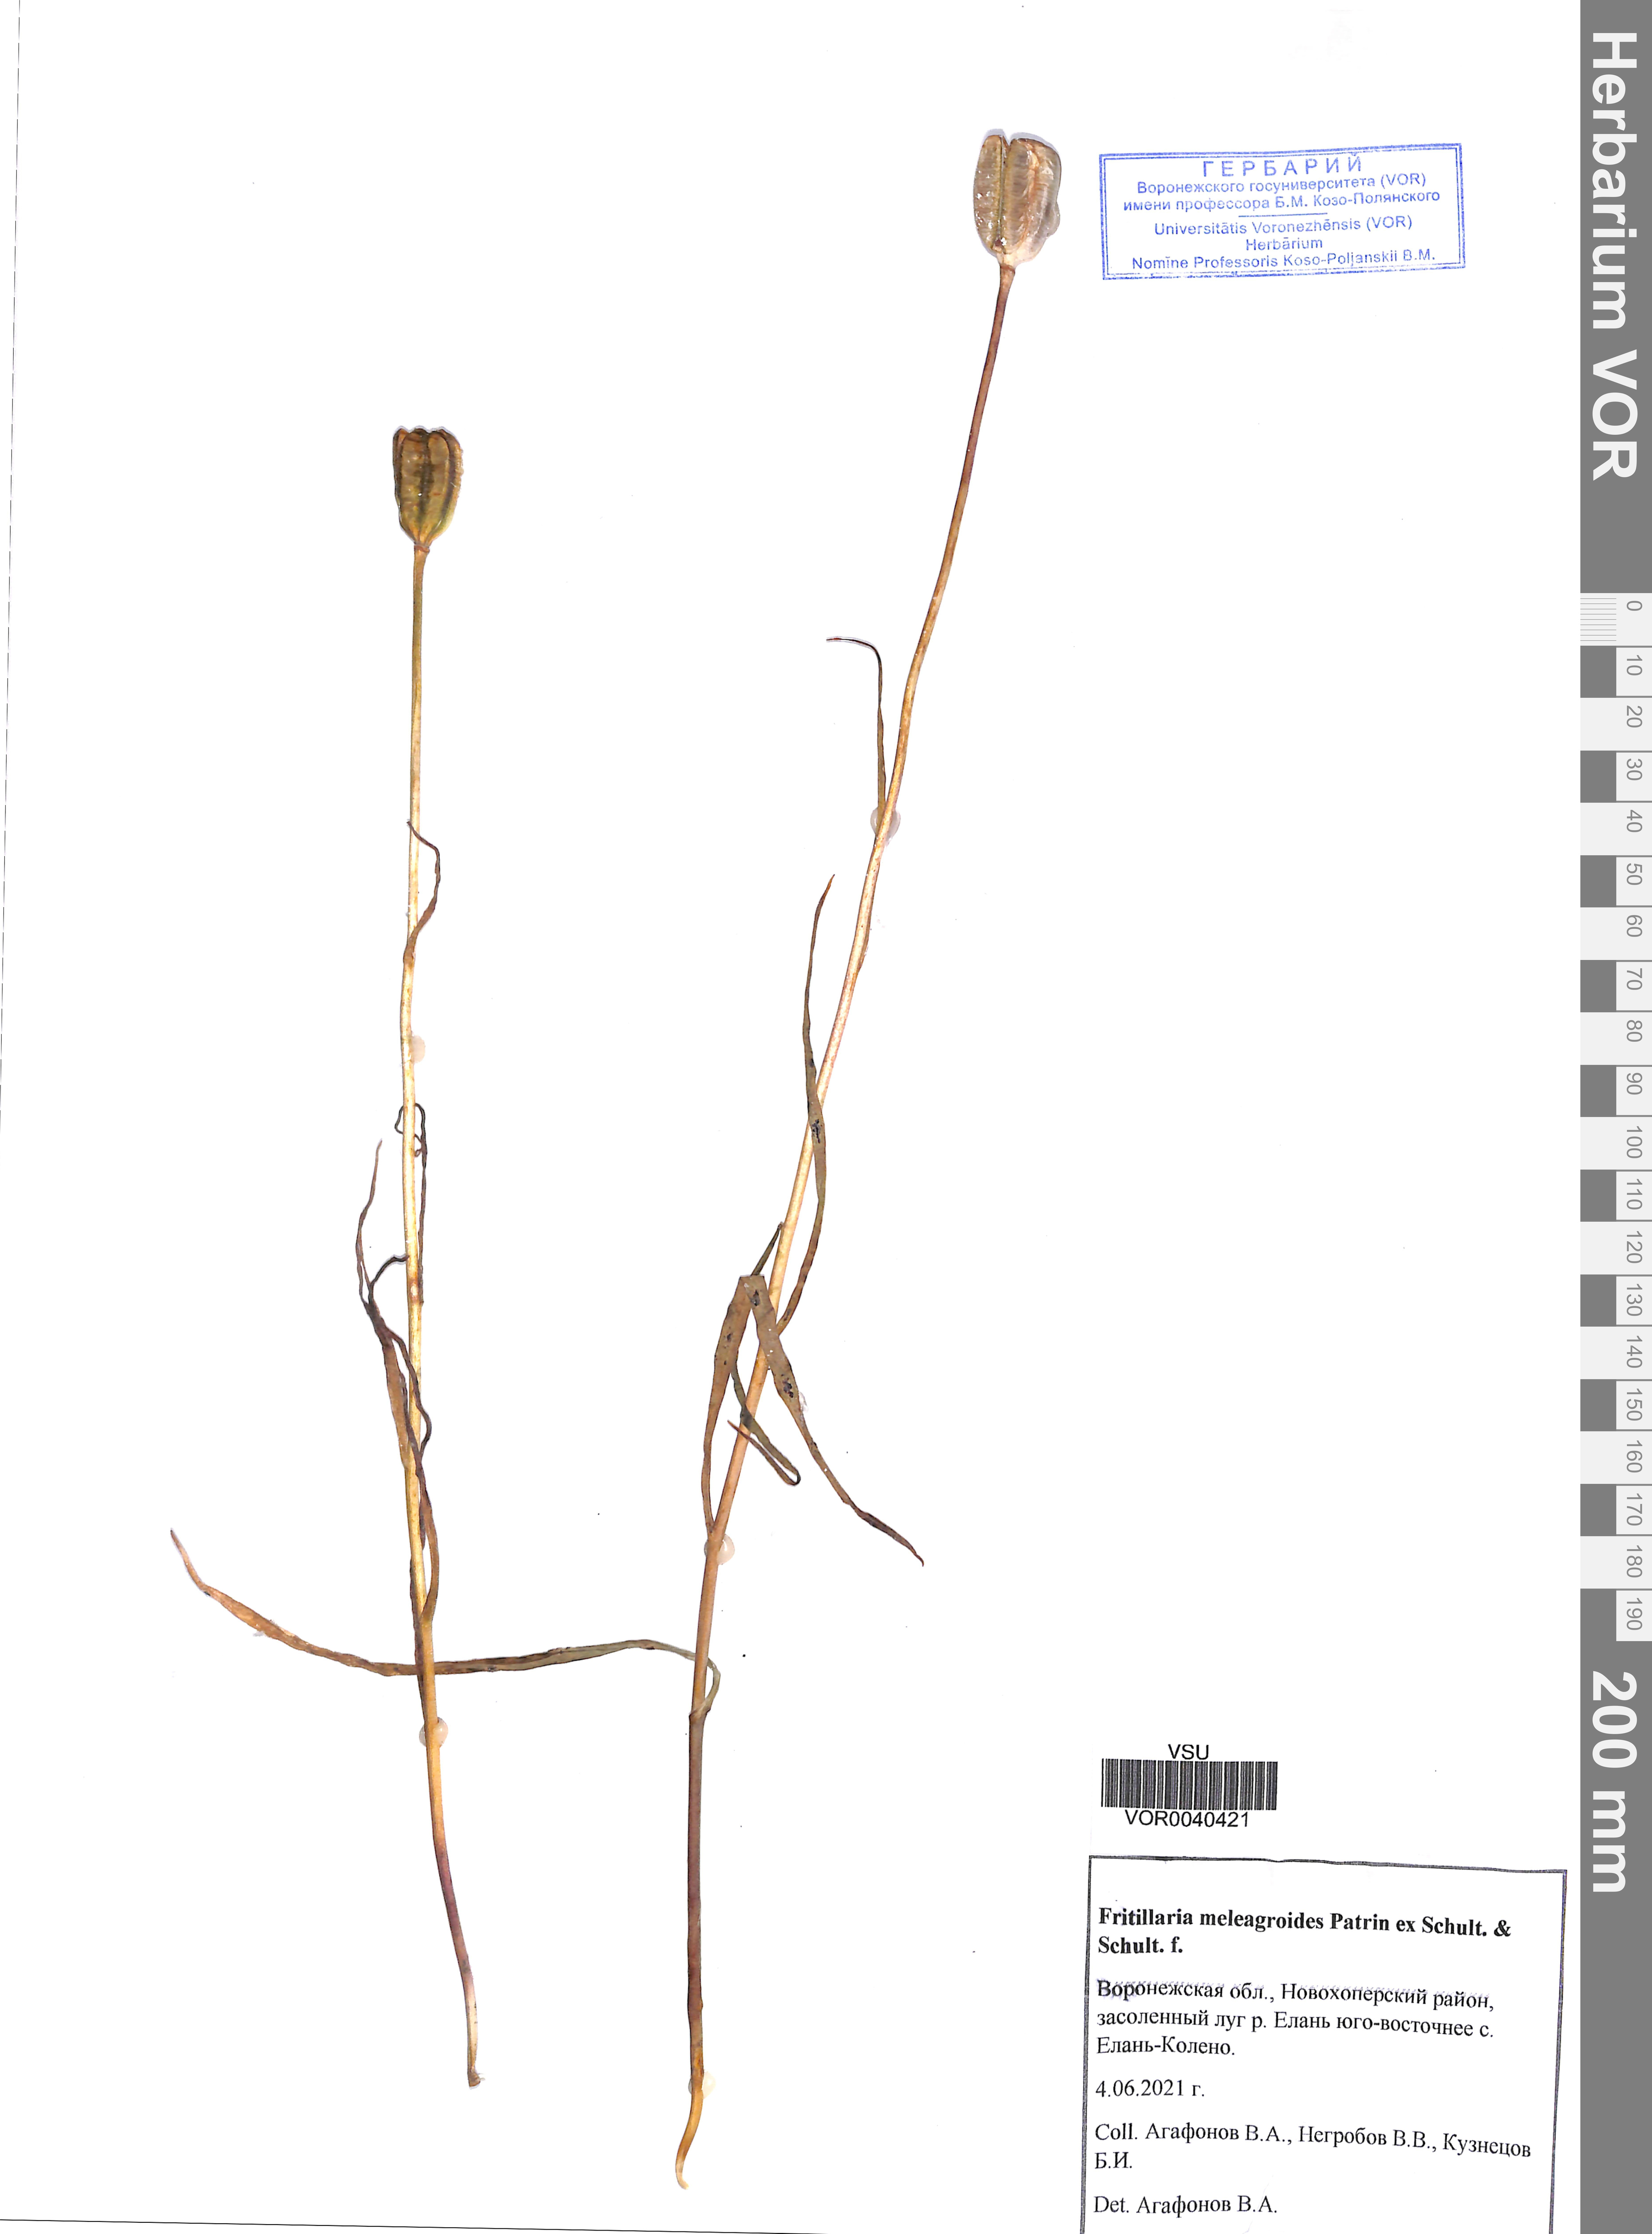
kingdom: Plantae
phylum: Tracheophyta
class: Liliopsida
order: Liliales
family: Liliaceae
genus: Fritillaria
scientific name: Fritillaria meleagroides
